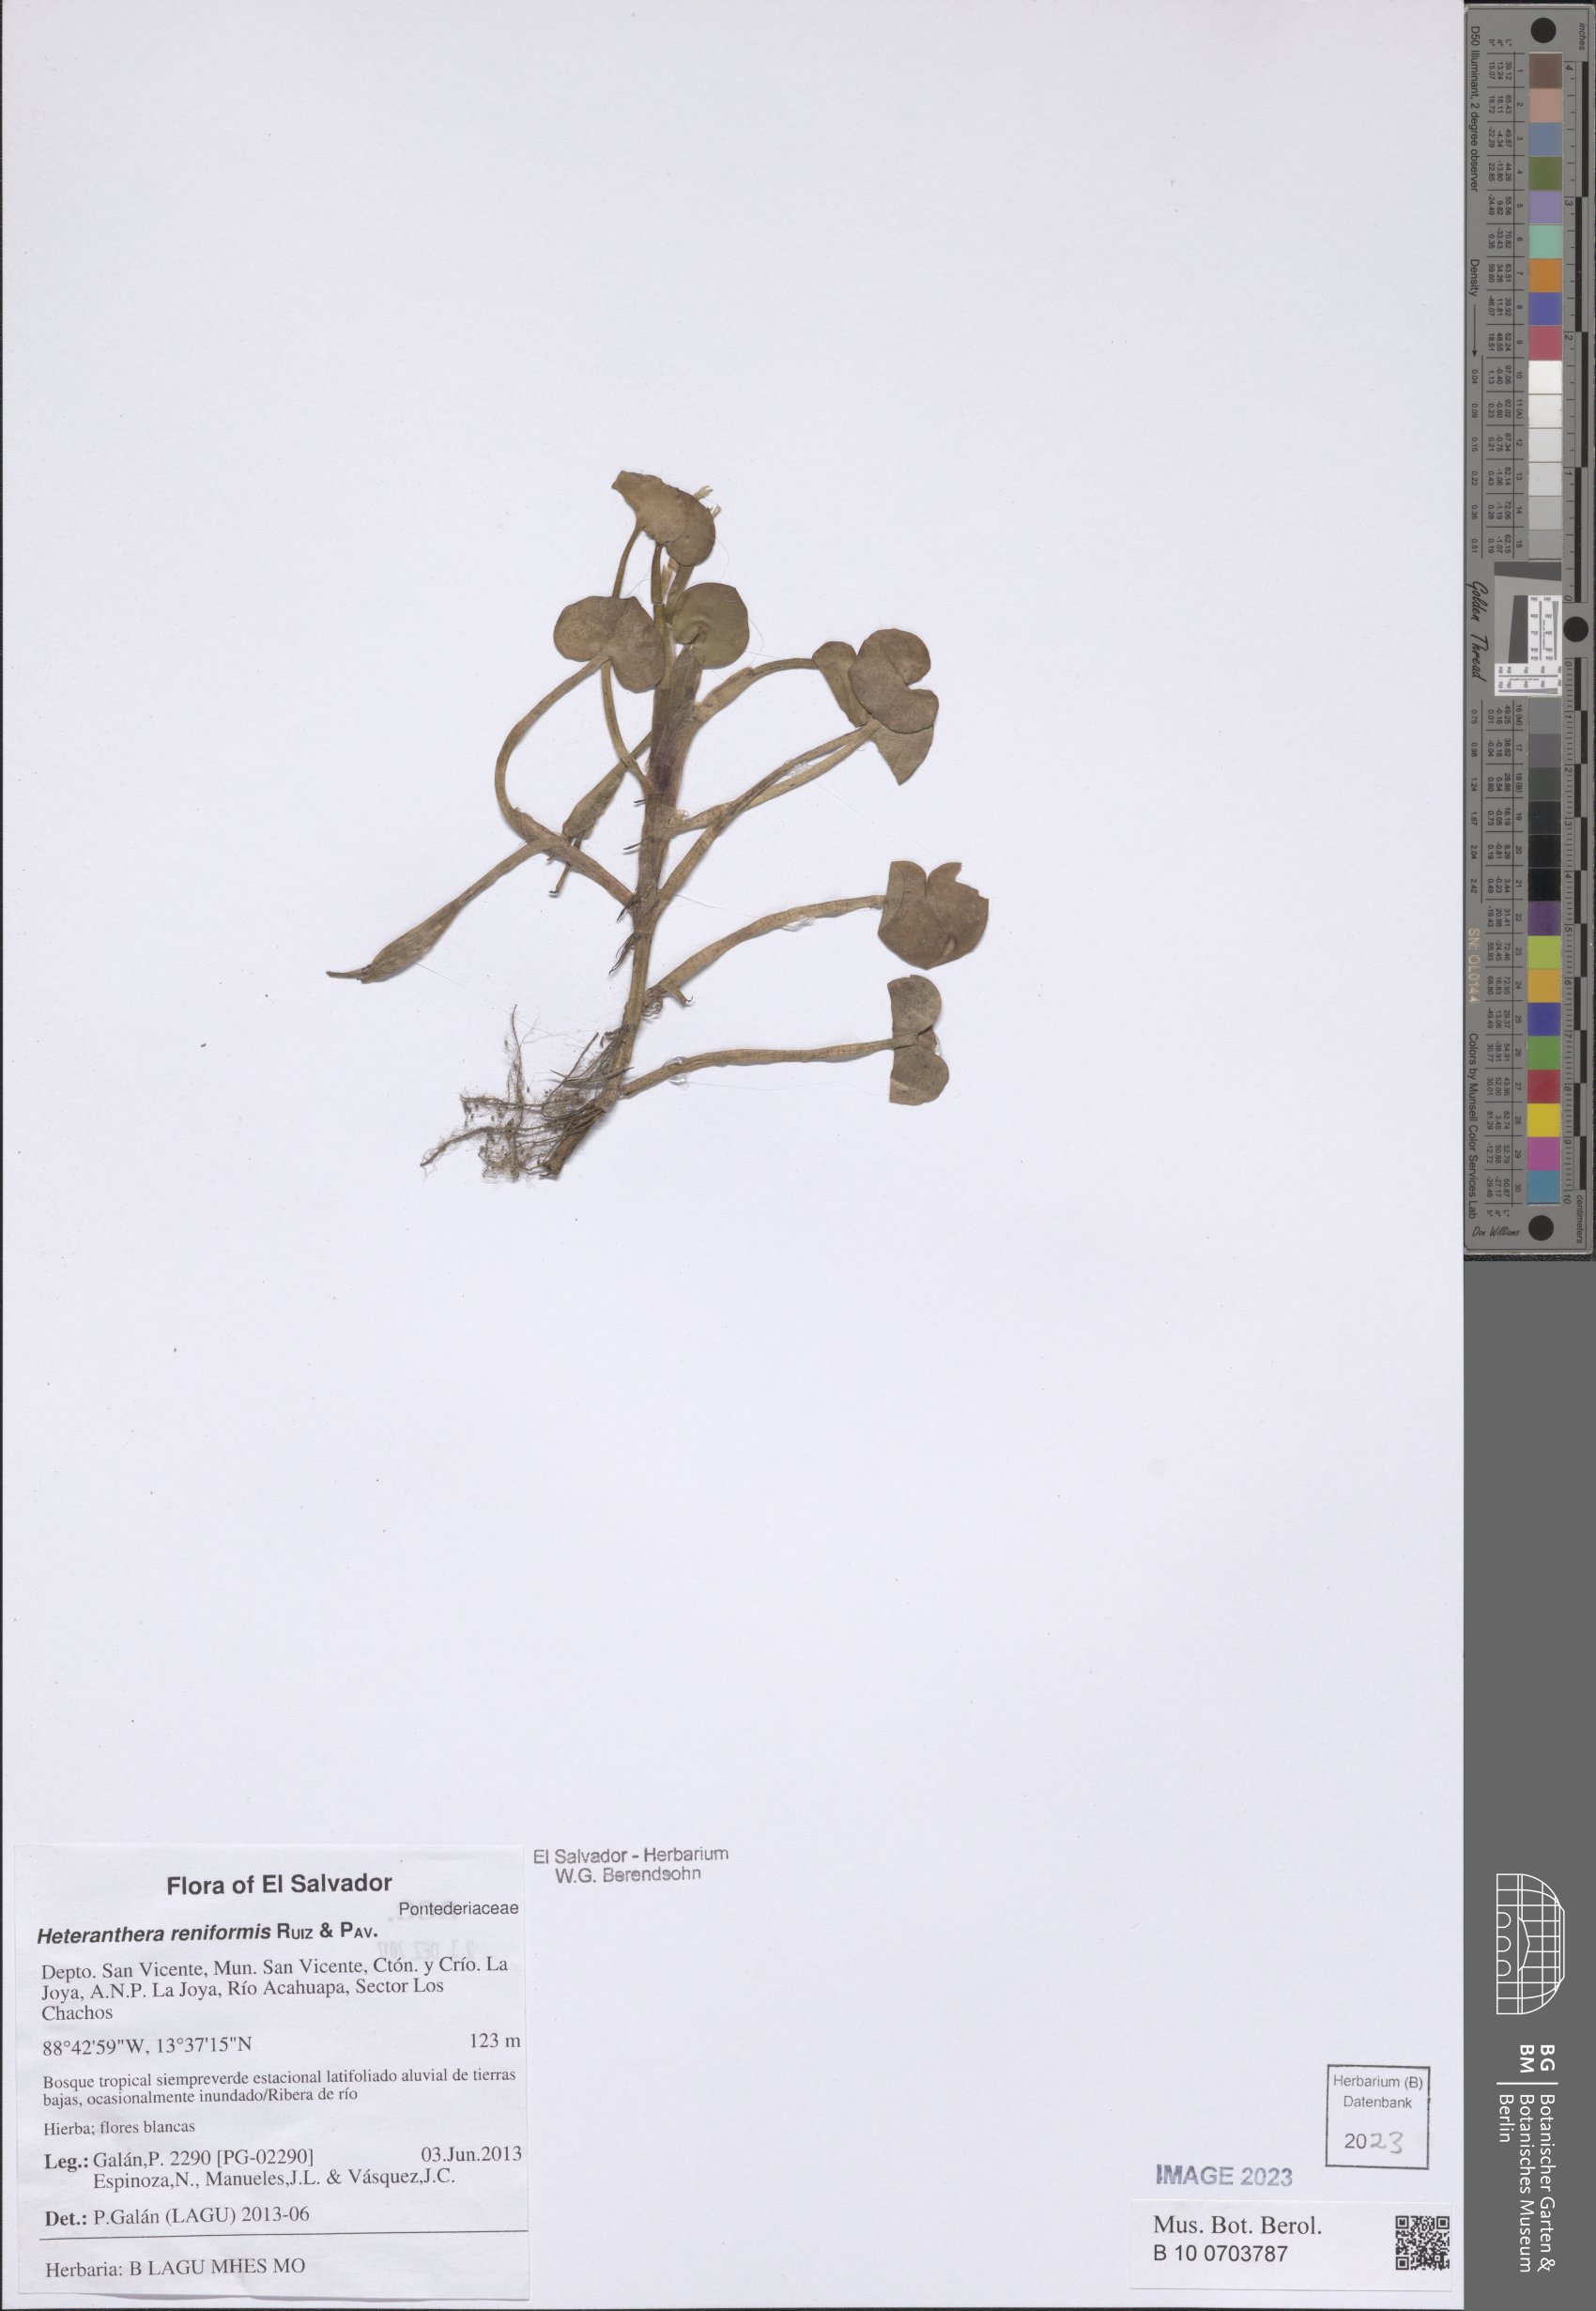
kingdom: Plantae
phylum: Tracheophyta
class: Liliopsida
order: Commelinales
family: Pontederiaceae
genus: Heteranthera
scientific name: Heteranthera reniformis
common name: Kidneyleaf mudplantain
